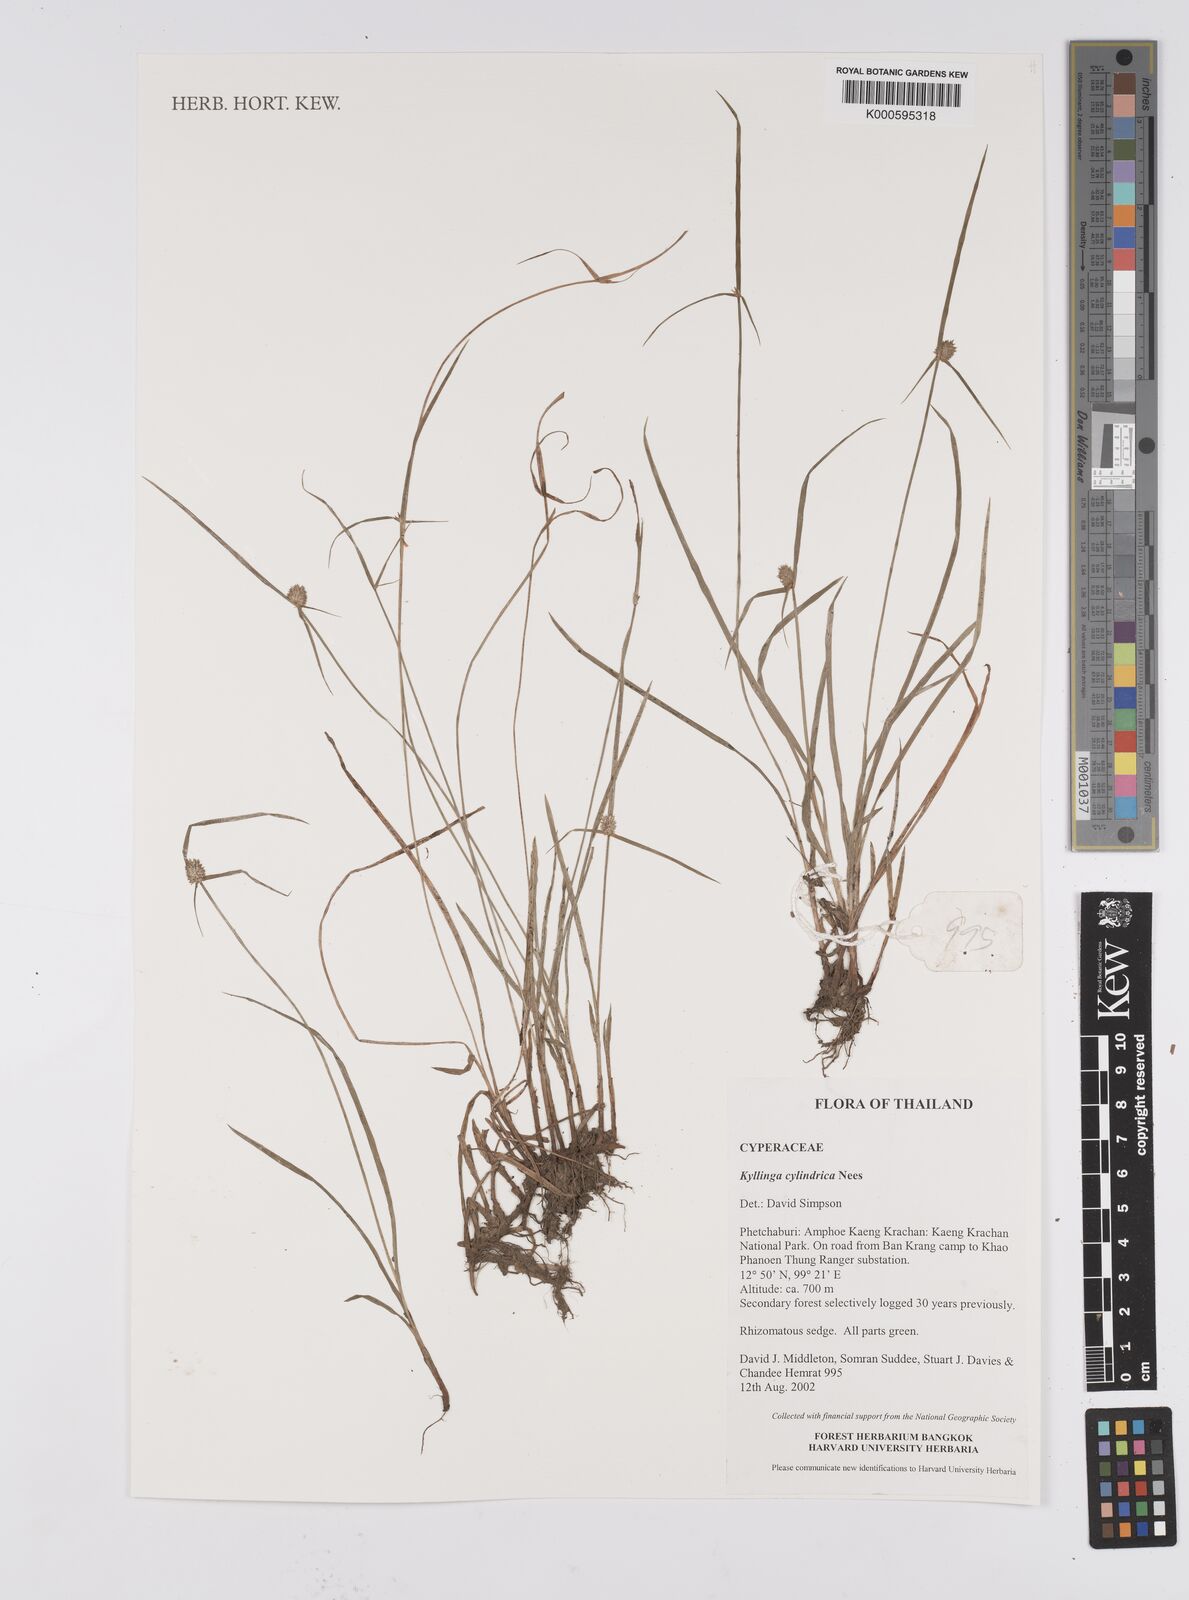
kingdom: Plantae
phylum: Tracheophyta
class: Liliopsida
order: Poales
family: Cyperaceae
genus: Cyperus
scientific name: Cyperus sesquiflorus
